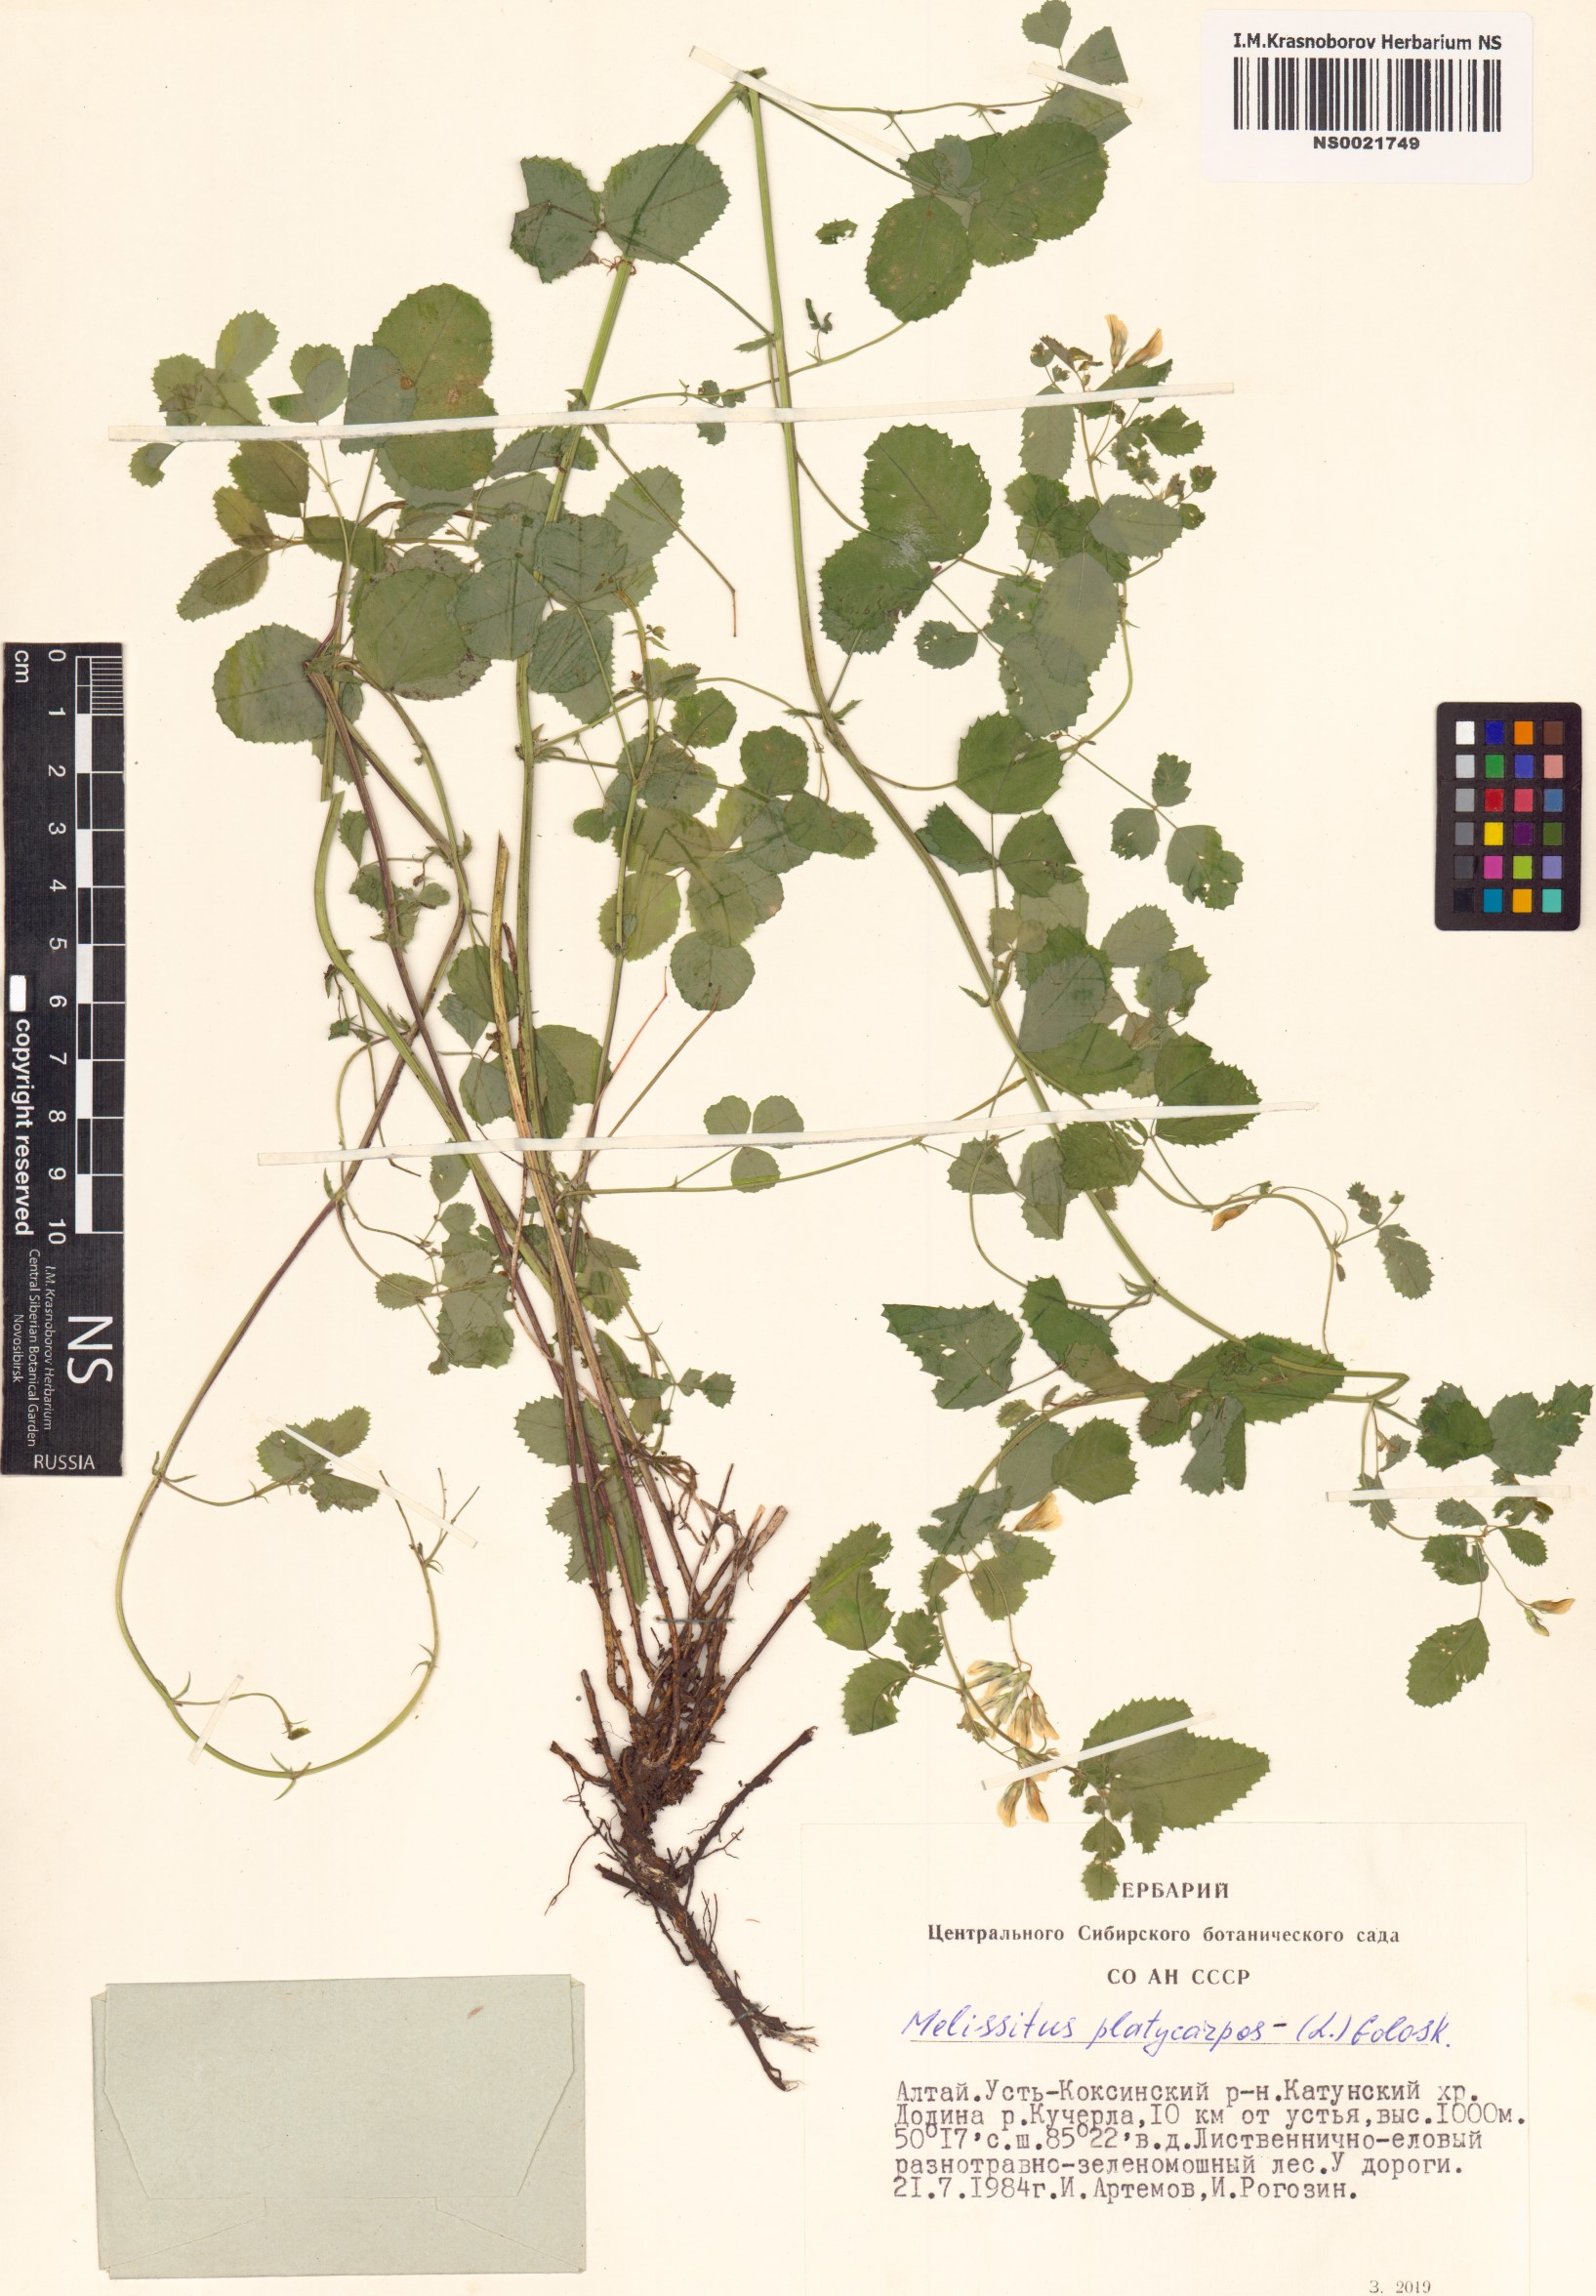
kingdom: Plantae
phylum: Tracheophyta
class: Magnoliopsida
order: Fabales
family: Fabaceae
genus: Medicago
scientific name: Medicago platycarpos
